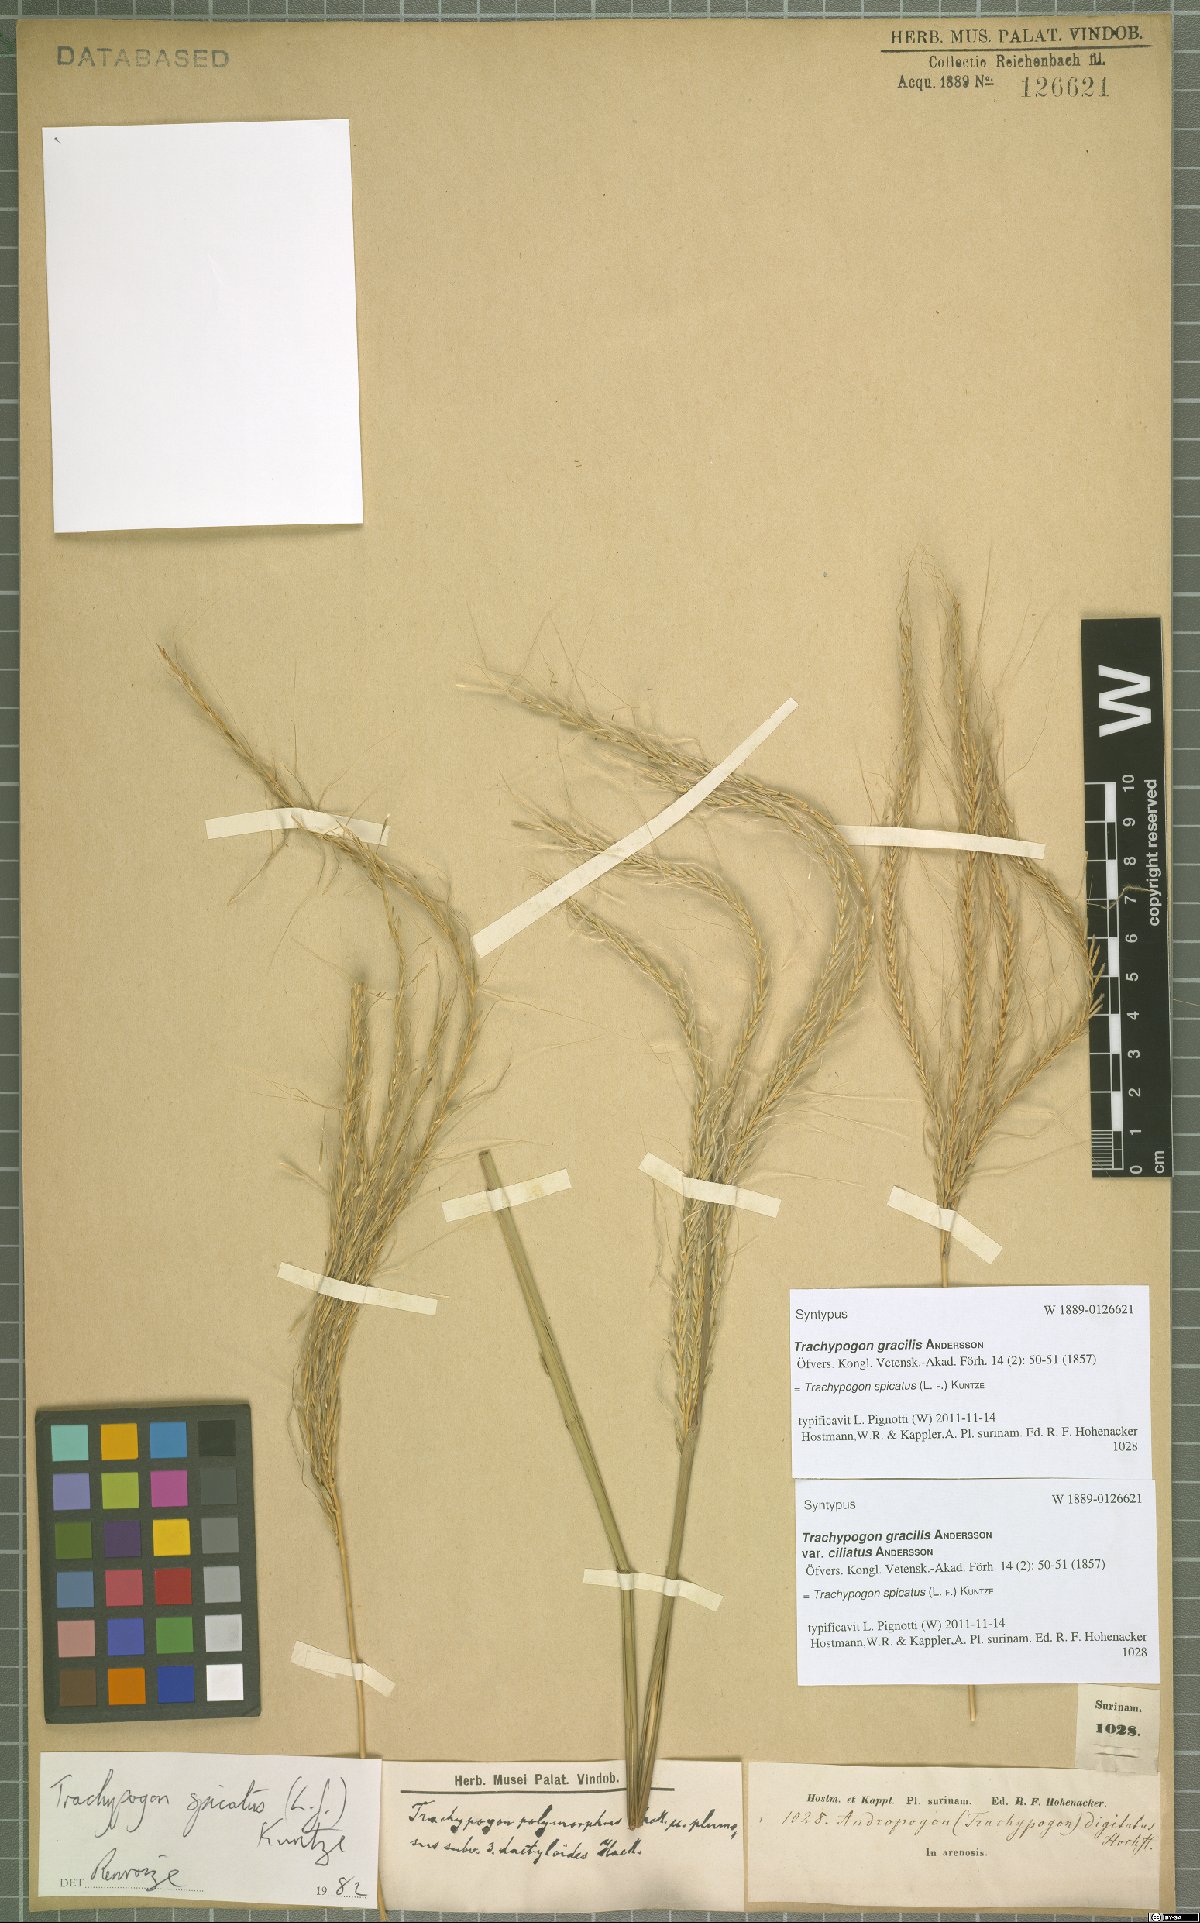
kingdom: Plantae
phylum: Tracheophyta
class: Liliopsida
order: Poales
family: Poaceae
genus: Trachypogon
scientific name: Trachypogon spicatus
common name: Crinkle-awn
